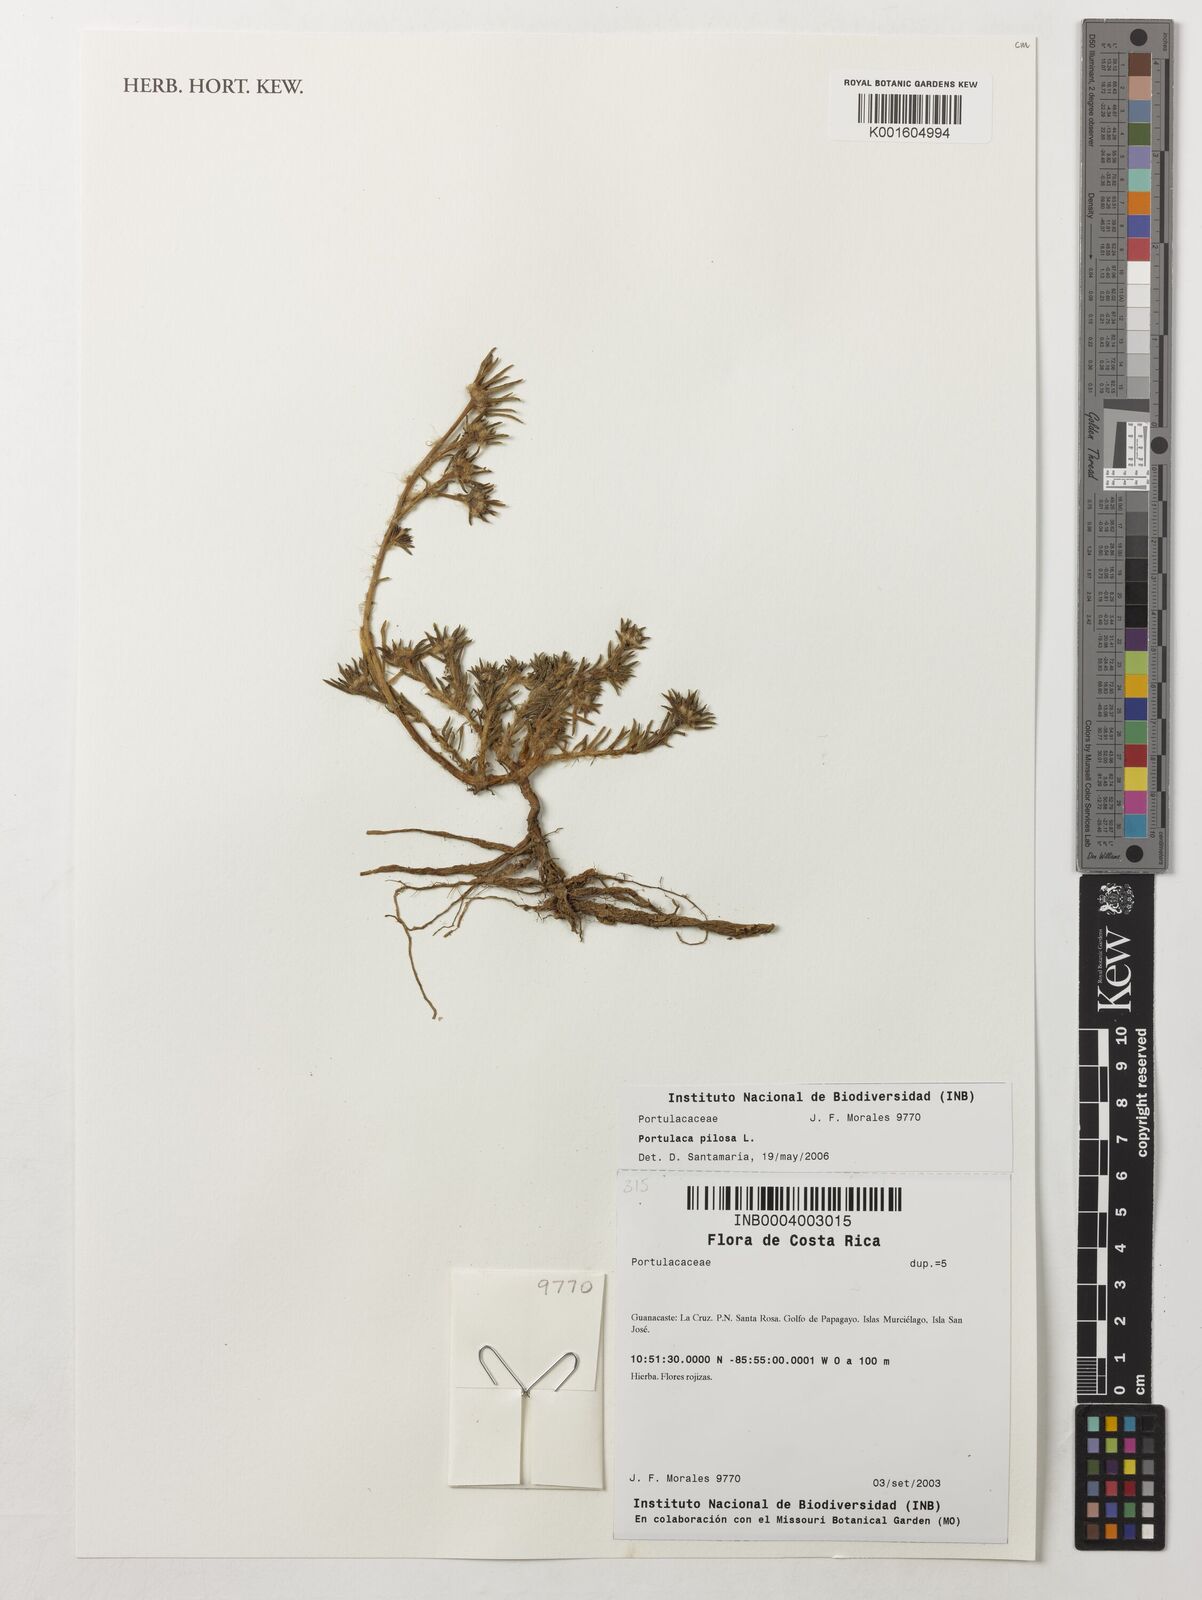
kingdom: Plantae
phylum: Tracheophyta
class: Magnoliopsida
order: Caryophyllales
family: Portulacaceae
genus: Portulaca
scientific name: Portulaca pilosa
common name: Kiss me quick
